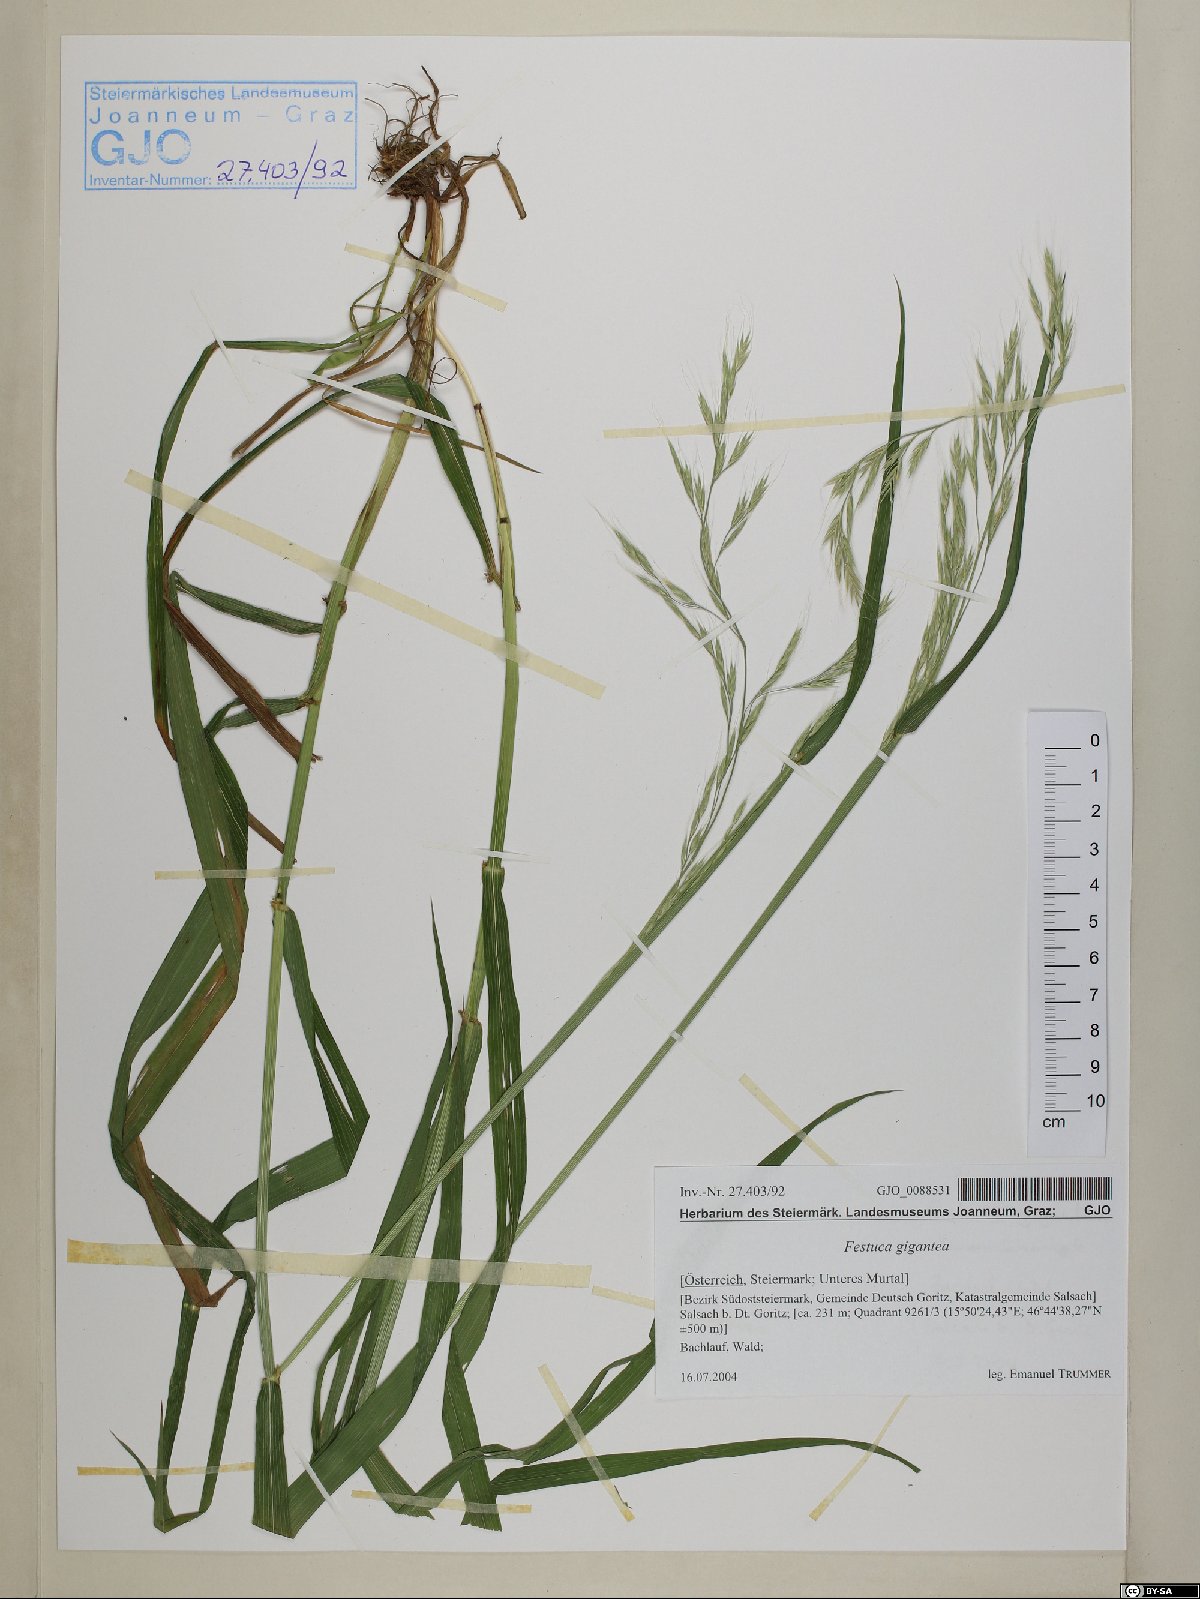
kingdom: Plantae
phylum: Tracheophyta
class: Liliopsida
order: Poales
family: Poaceae
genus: Lolium
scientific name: Lolium giganteum
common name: Giant fescue
